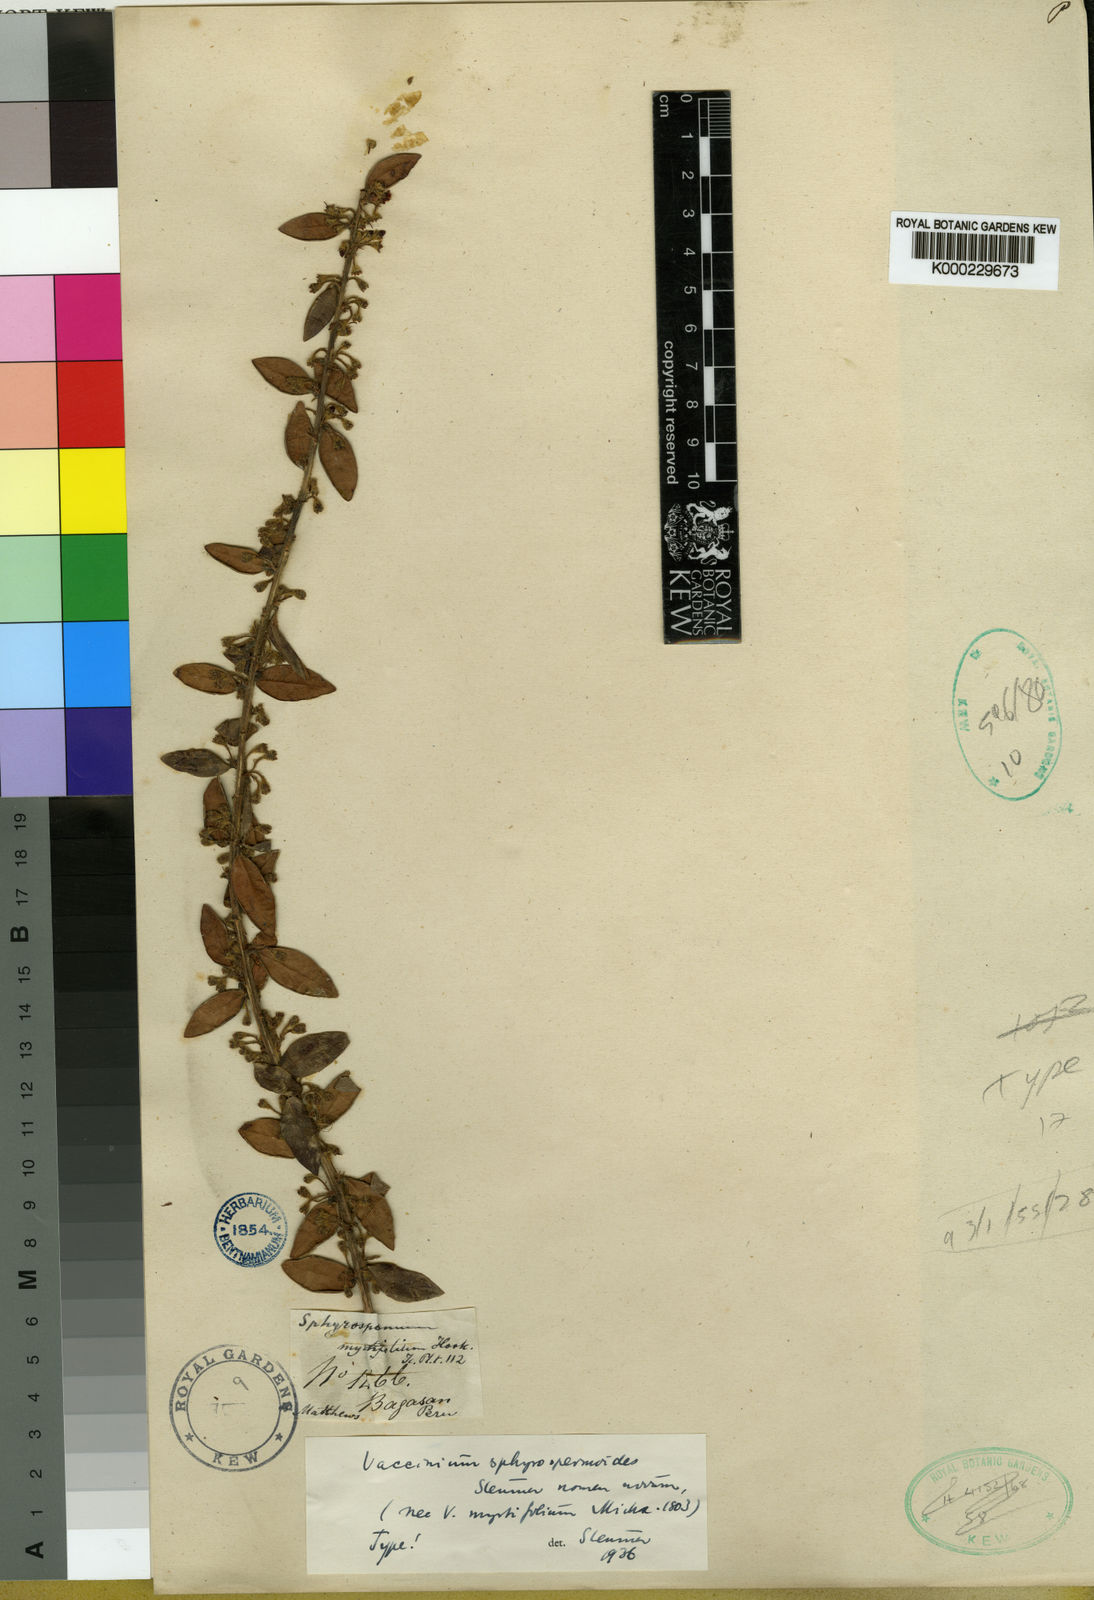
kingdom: Plantae
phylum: Tracheophyta
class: Magnoliopsida
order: Ericales
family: Ericaceae
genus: Sphyrospermum
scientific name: Sphyrospermum myrtifolium
